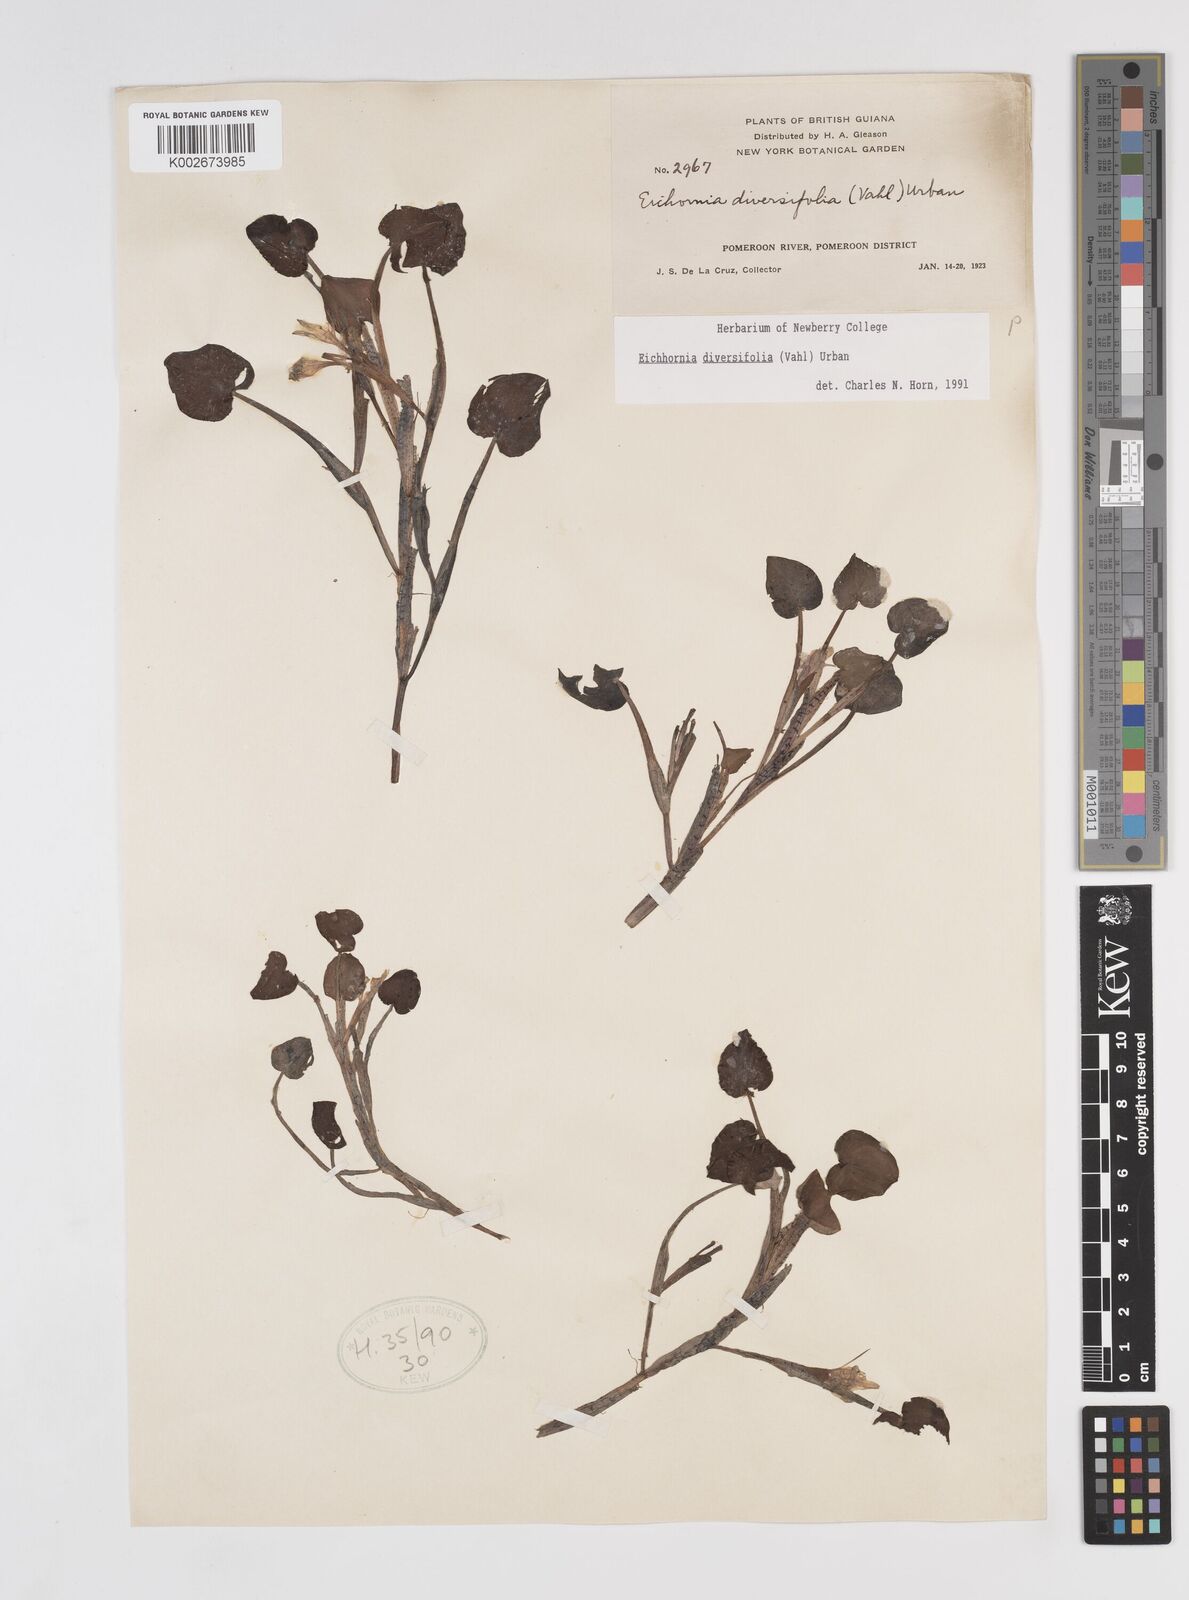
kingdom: Plantae
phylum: Tracheophyta
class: Liliopsida
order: Commelinales
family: Pontederiaceae
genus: Pontederia
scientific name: Pontederia diversifolia
